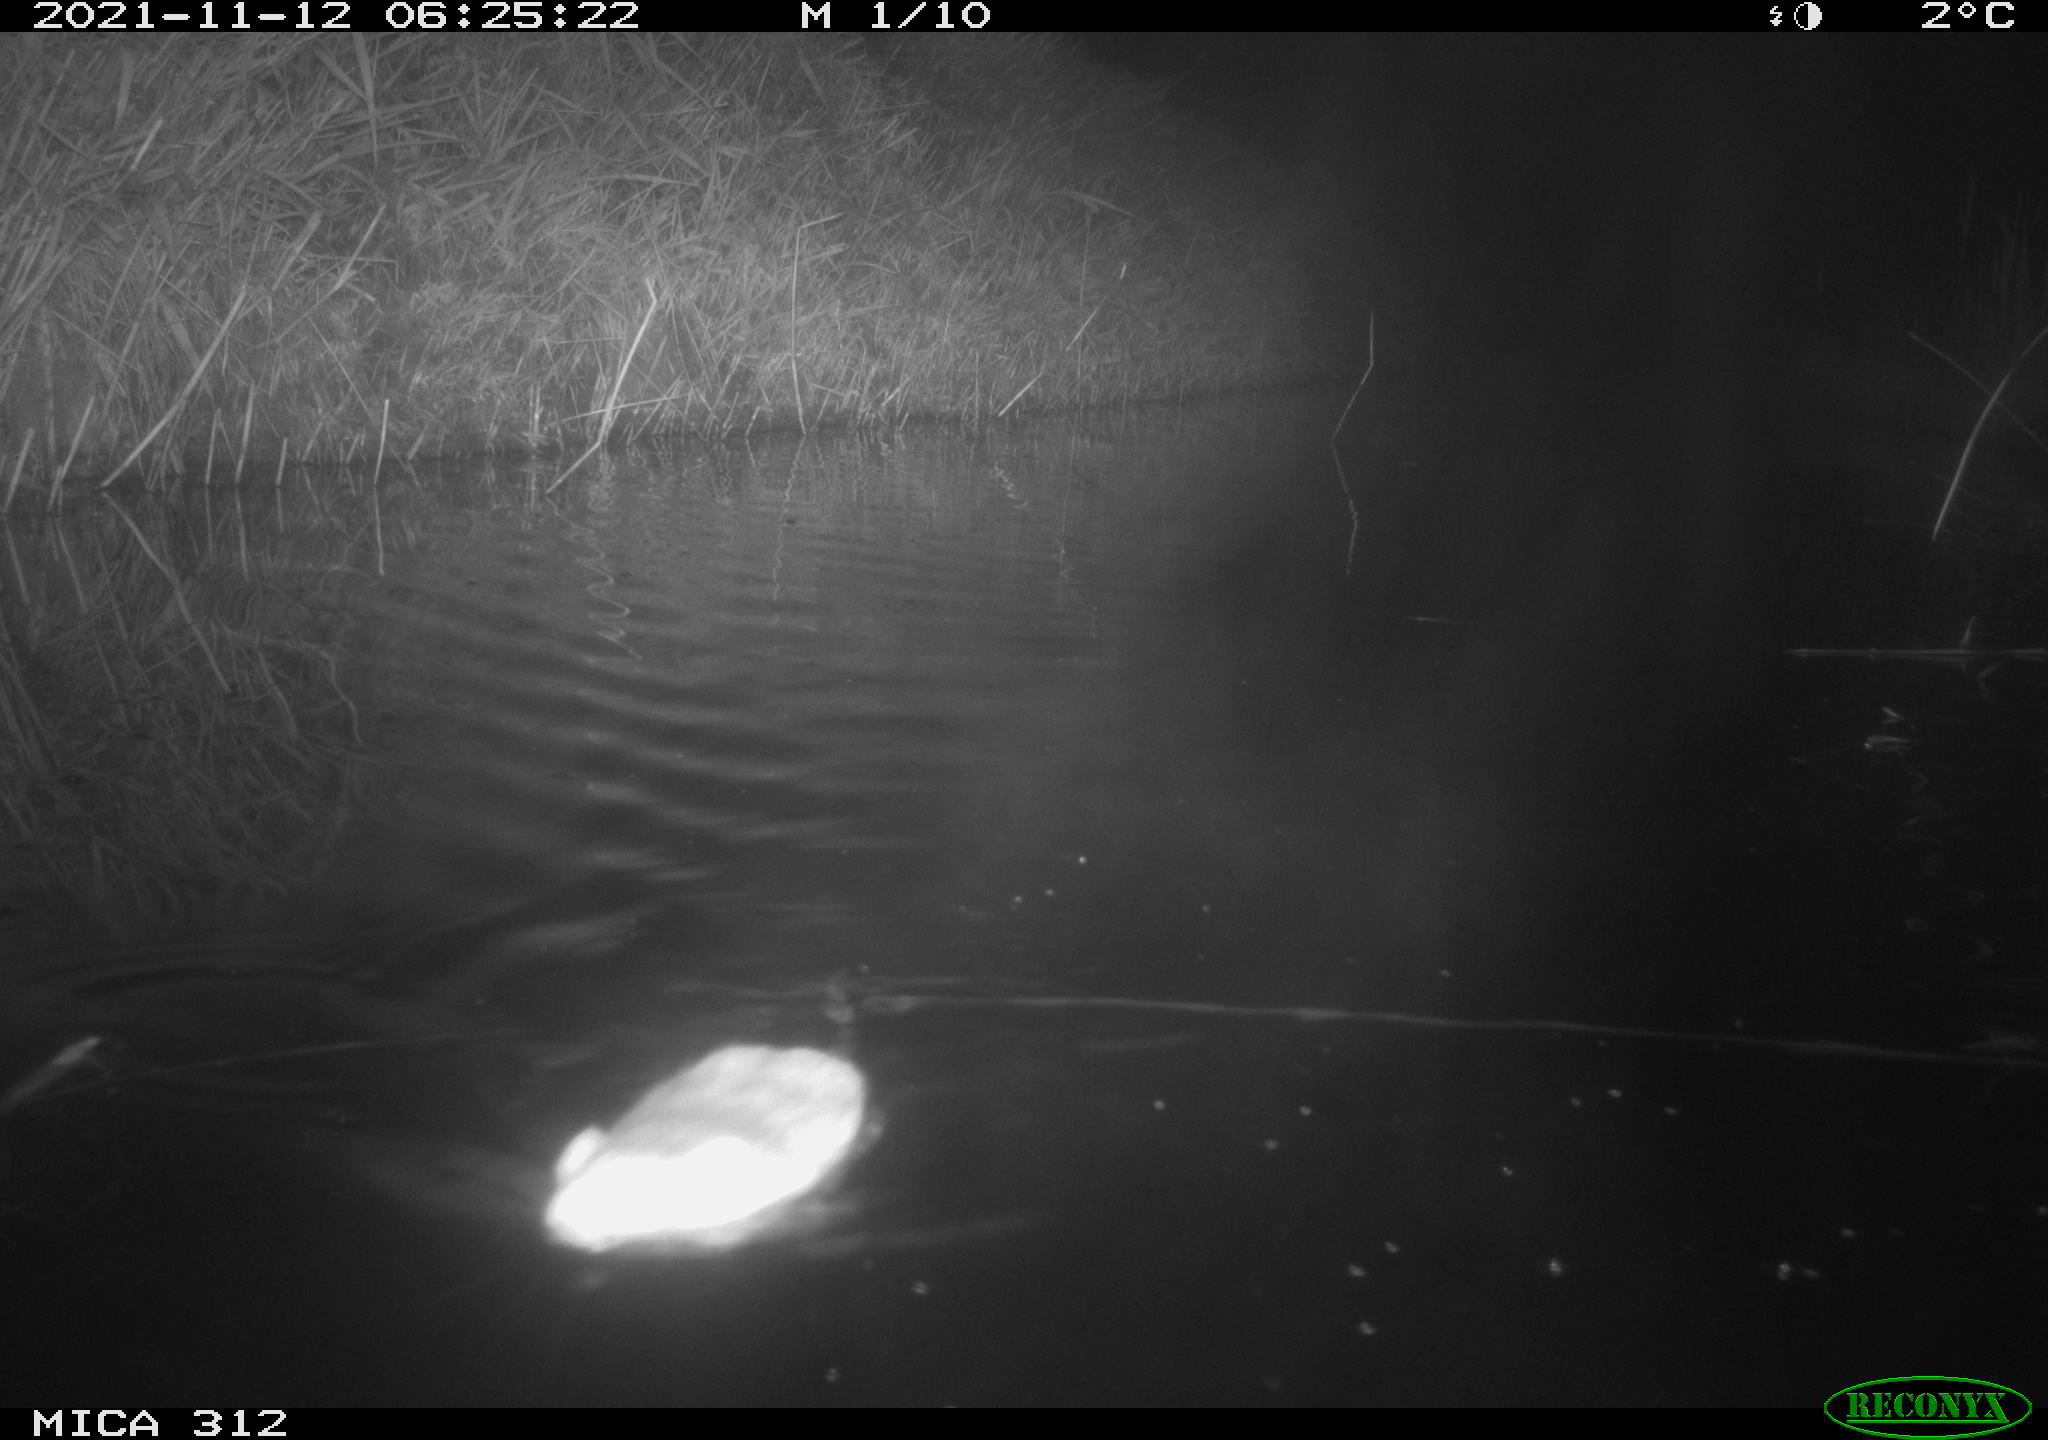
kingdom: Animalia
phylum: Chordata
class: Mammalia
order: Rodentia
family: Cricetidae
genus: Ondatra
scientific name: Ondatra zibethicus
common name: Muskrat
